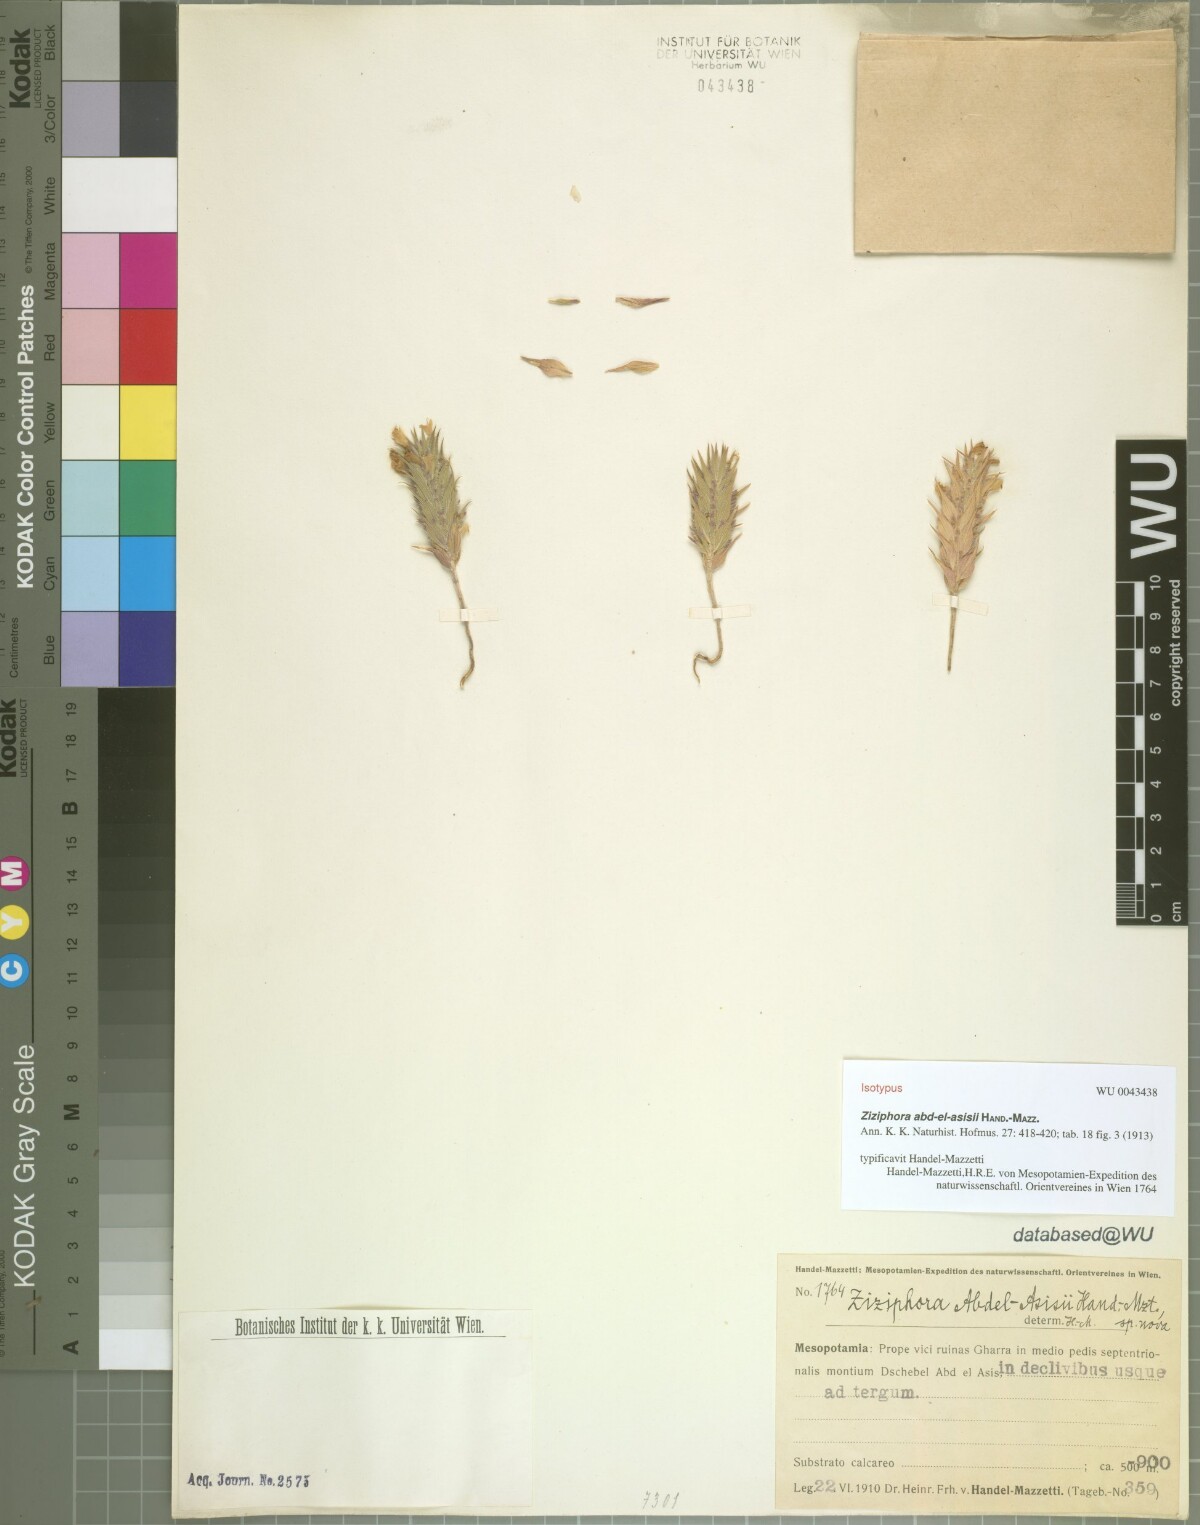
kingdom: Plantae
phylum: Tracheophyta
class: Magnoliopsida
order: Lamiales
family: Lamiaceae
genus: Ziziphora
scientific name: Ziziphora taurica
